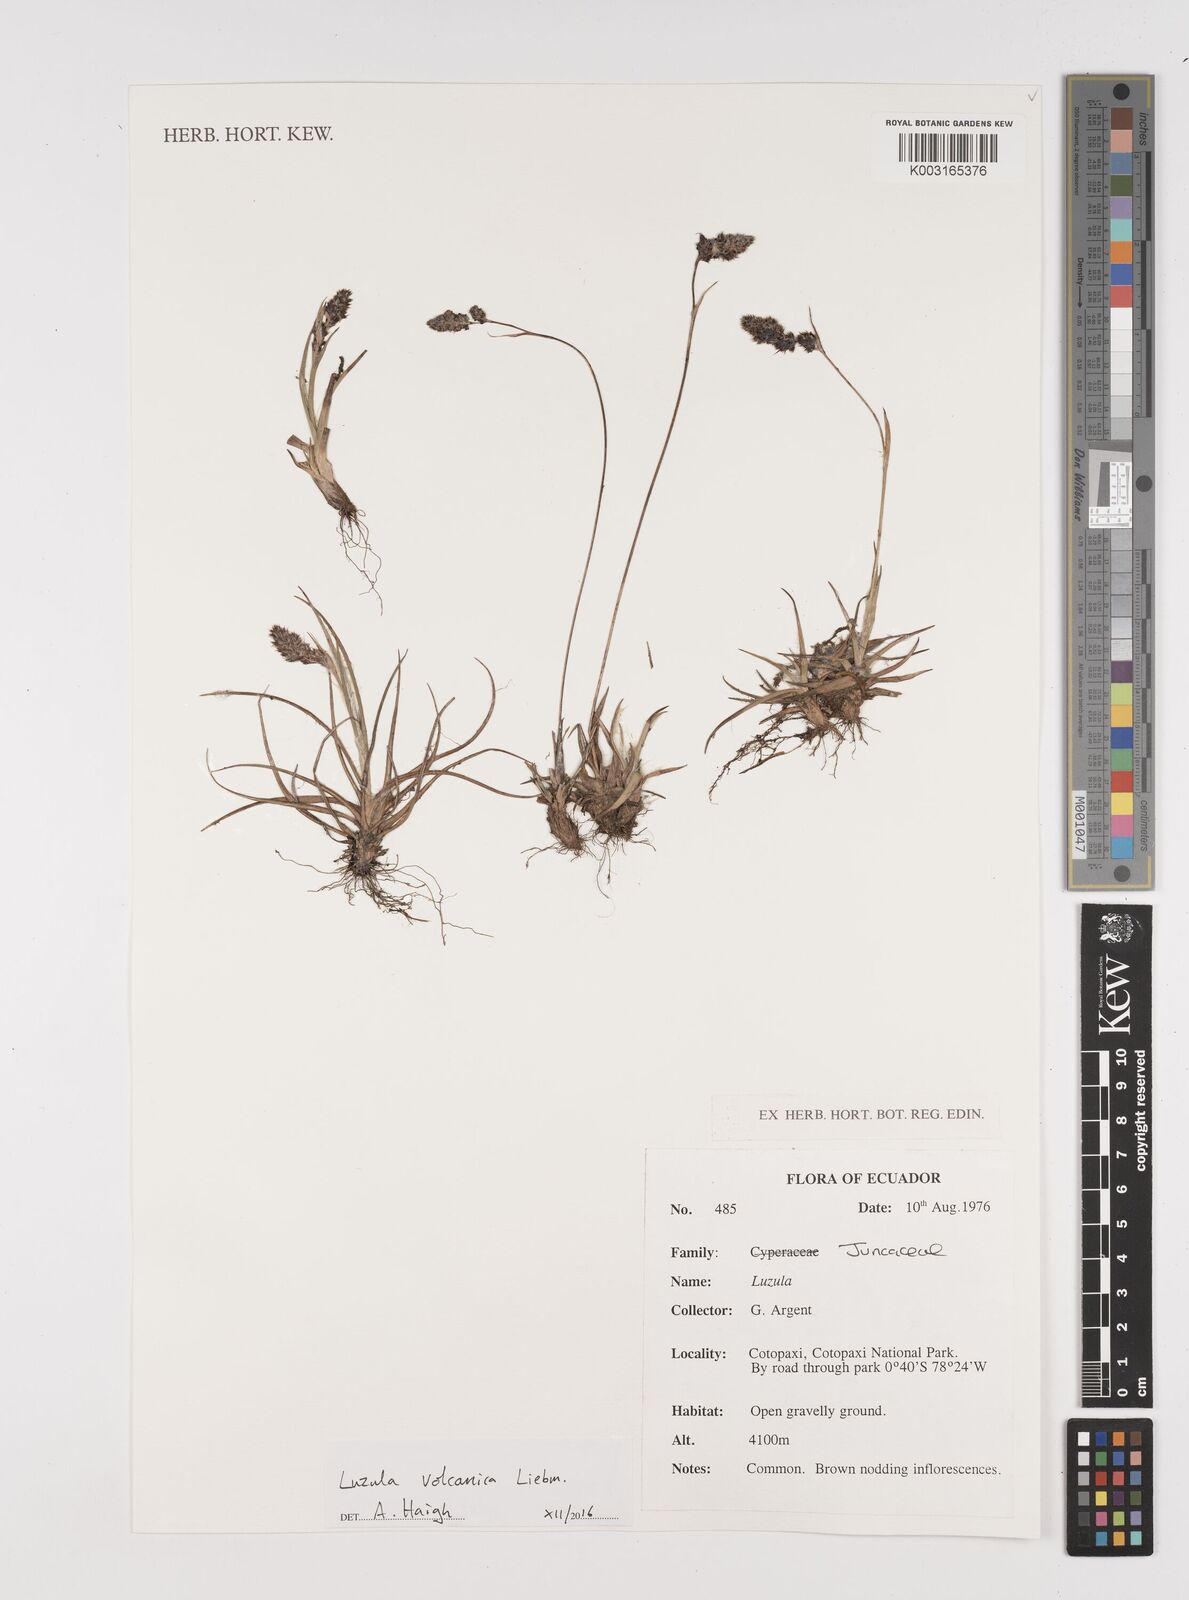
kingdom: Plantae
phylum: Tracheophyta
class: Liliopsida
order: Poales
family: Juncaceae
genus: Luzula
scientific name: Luzula vulcanica
